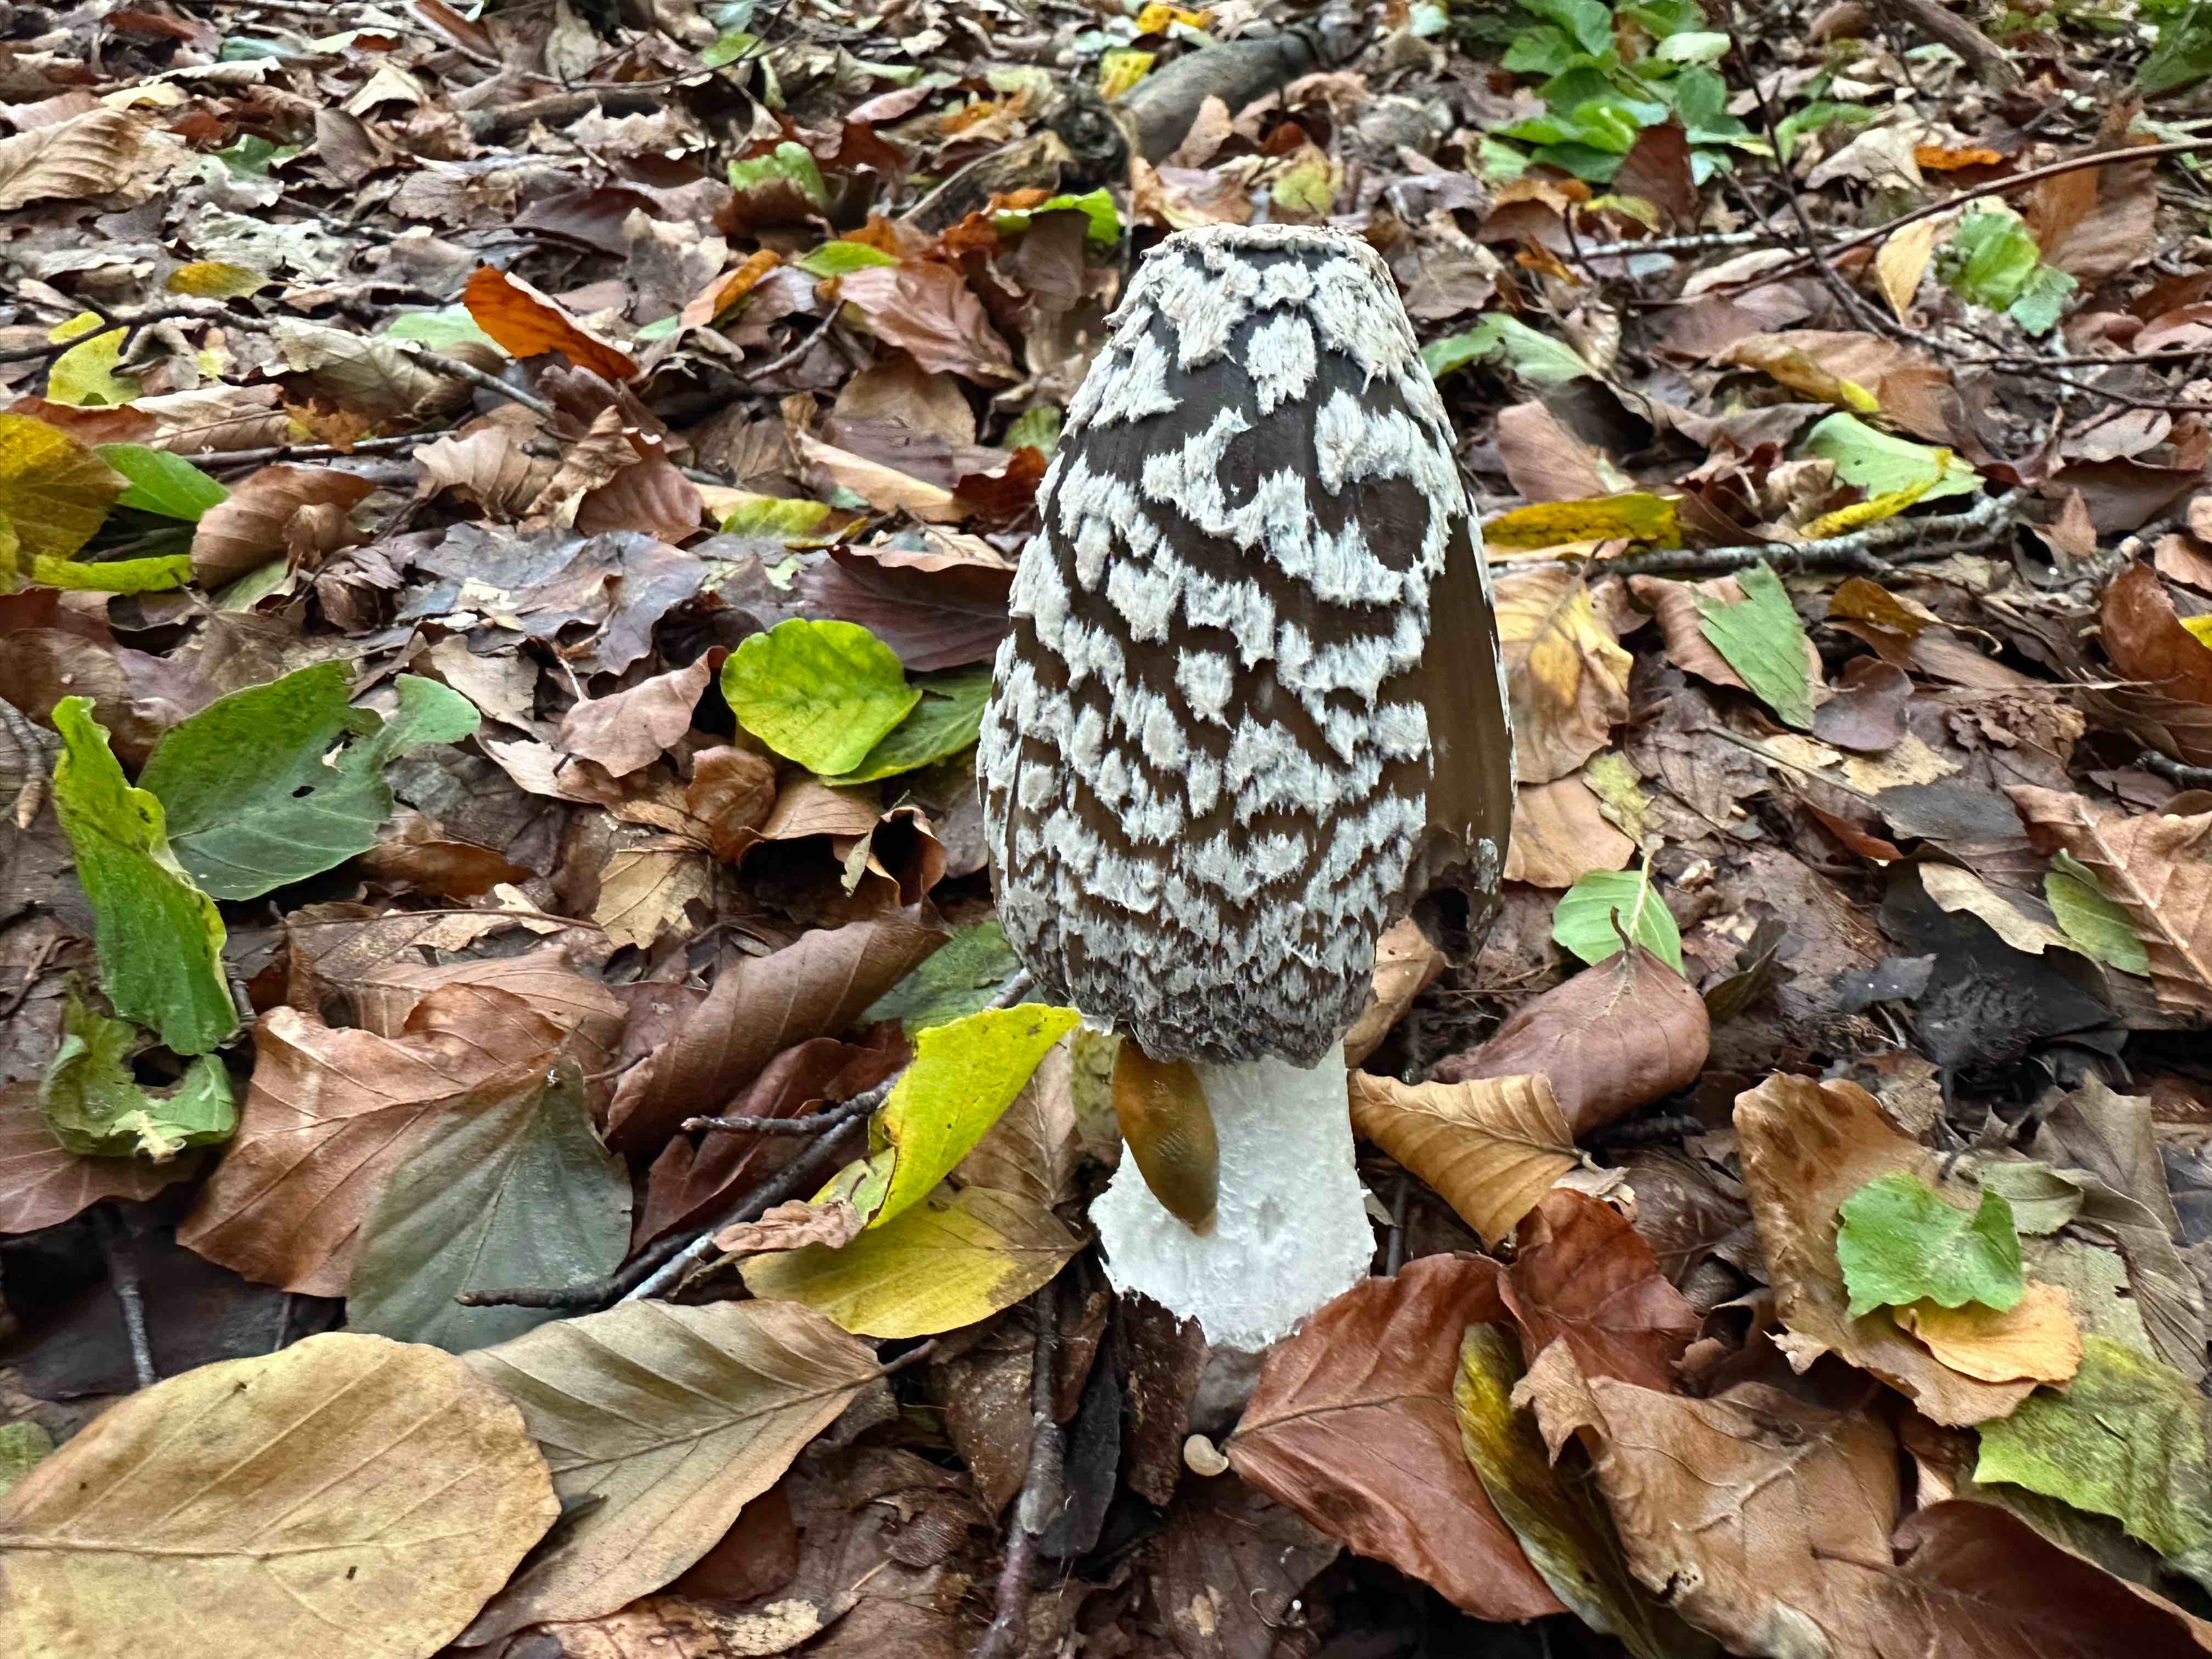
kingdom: Fungi
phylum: Basidiomycota
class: Agaricomycetes
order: Agaricales
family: Psathyrellaceae
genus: Coprinopsis
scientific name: Coprinopsis picacea
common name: skade-blækhat
